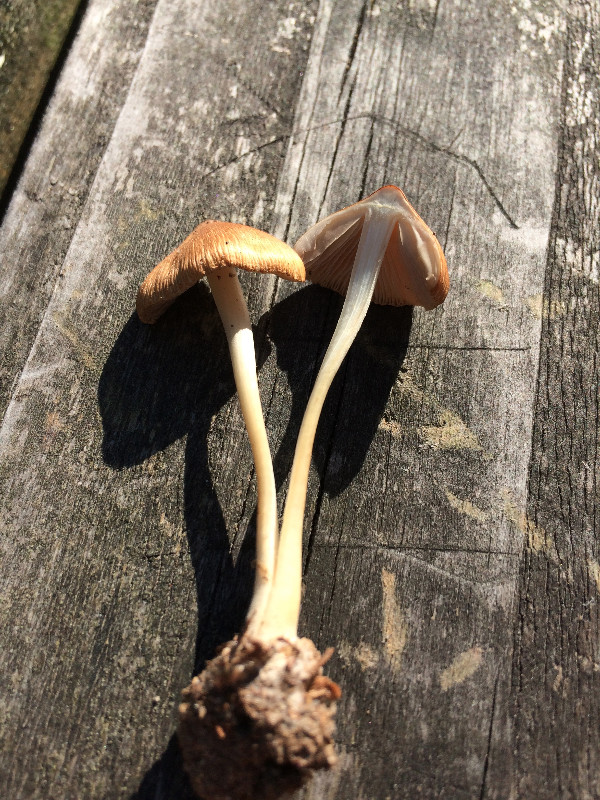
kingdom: Fungi
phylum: Basidiomycota
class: Agaricomycetes
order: Agaricales
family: Inocybaceae
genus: Inocybe
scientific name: Inocybe mixtilis
